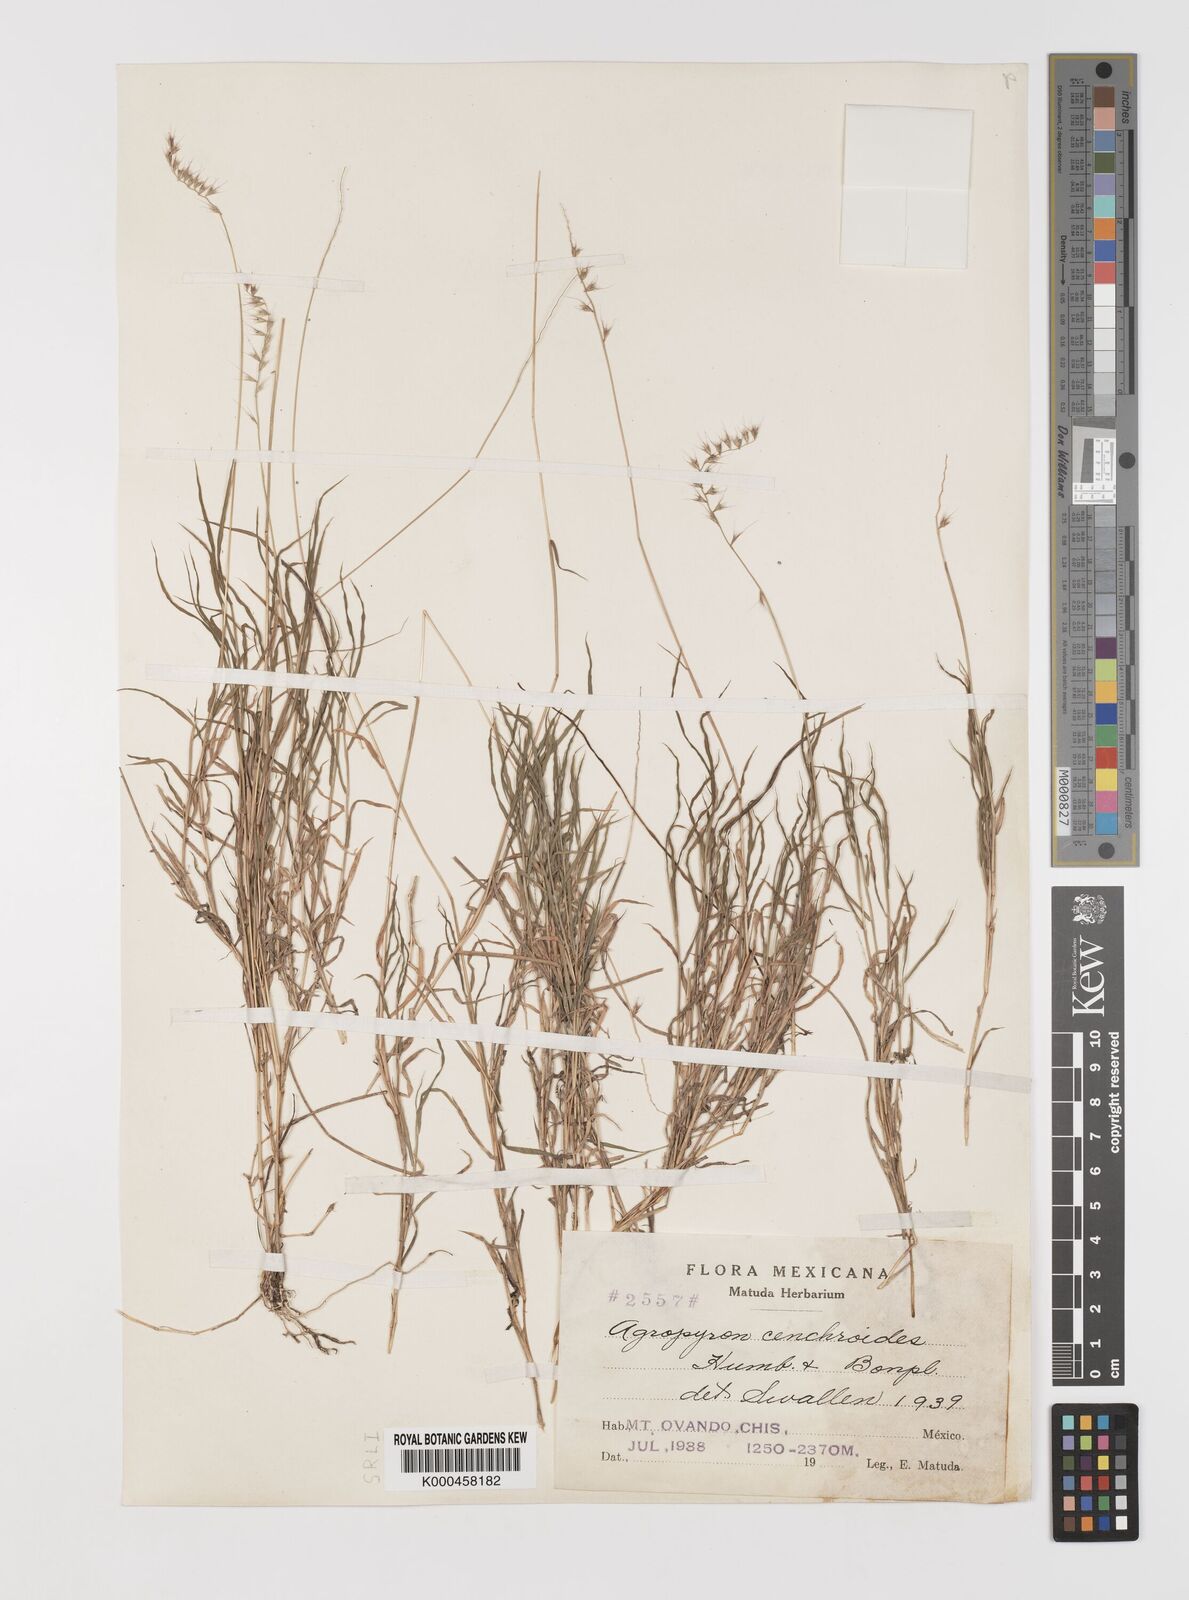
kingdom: Plantae
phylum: Tracheophyta
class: Liliopsida
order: Poales
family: Poaceae
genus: Muhlenbergia
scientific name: Muhlenbergia
